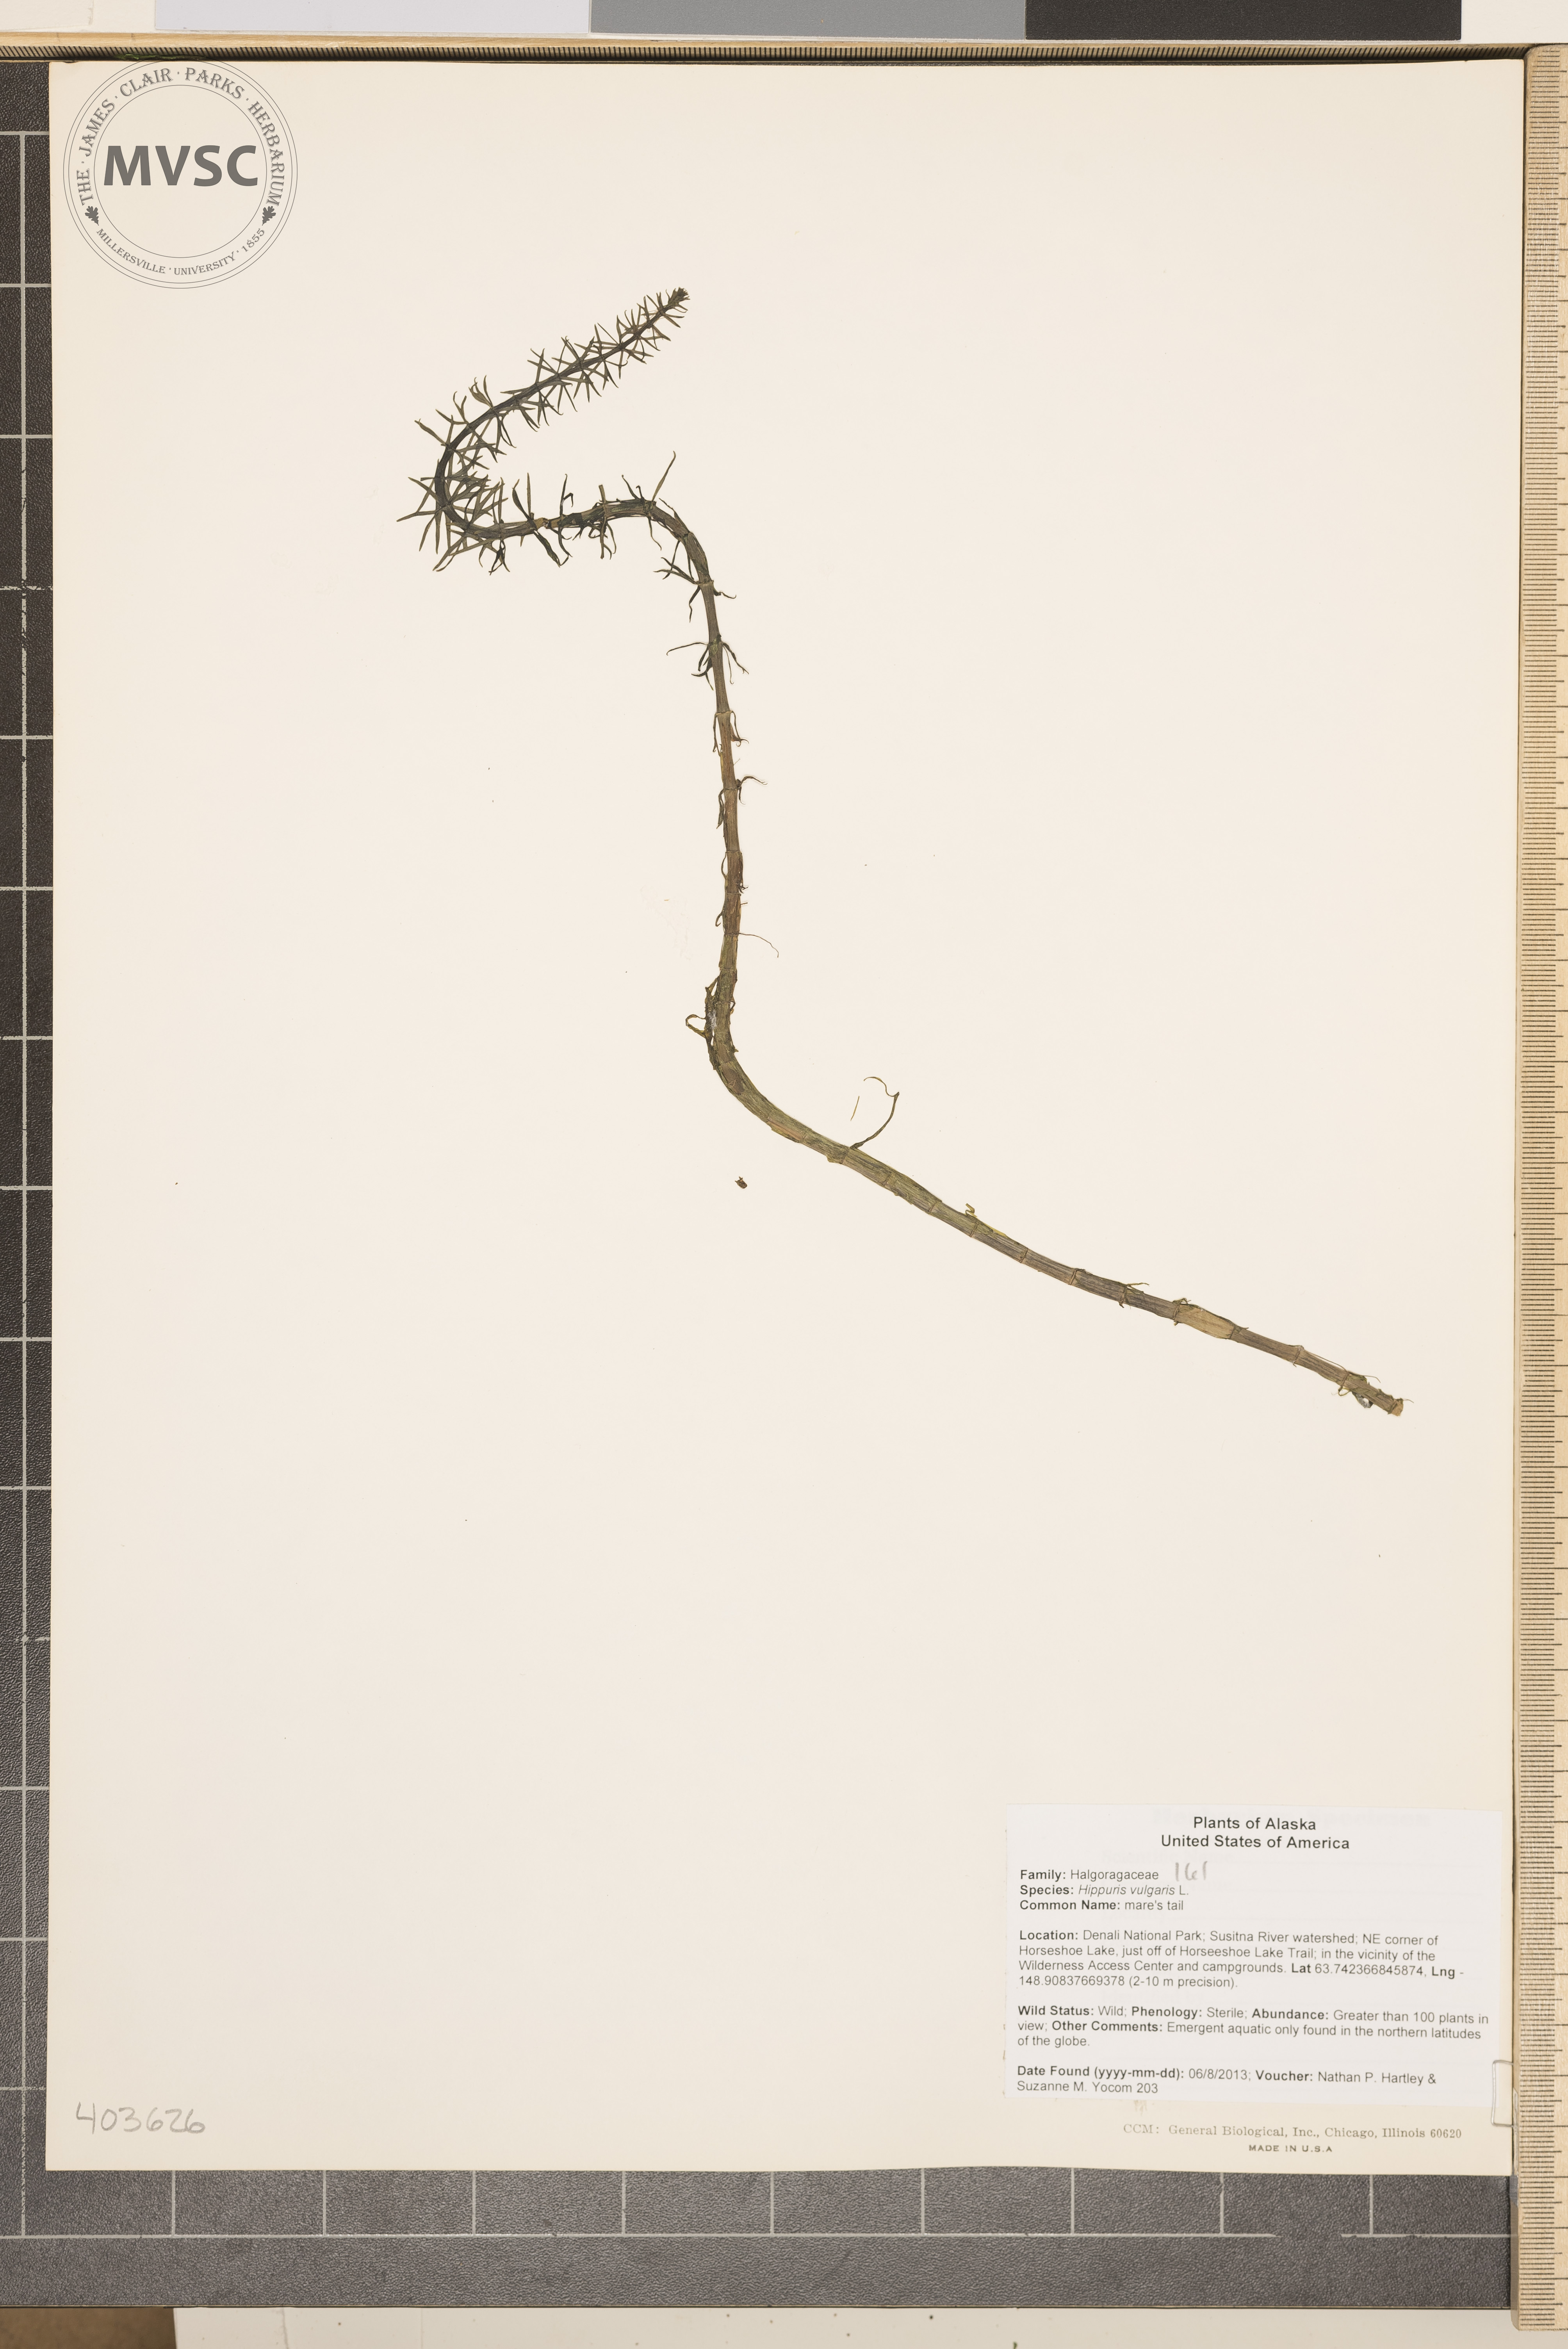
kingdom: Plantae
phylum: Tracheophyta
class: Magnoliopsida
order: Lamiales
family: Plantaginaceae
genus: Hippuris
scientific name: Hippuris vulgaris
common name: Mare's tail
